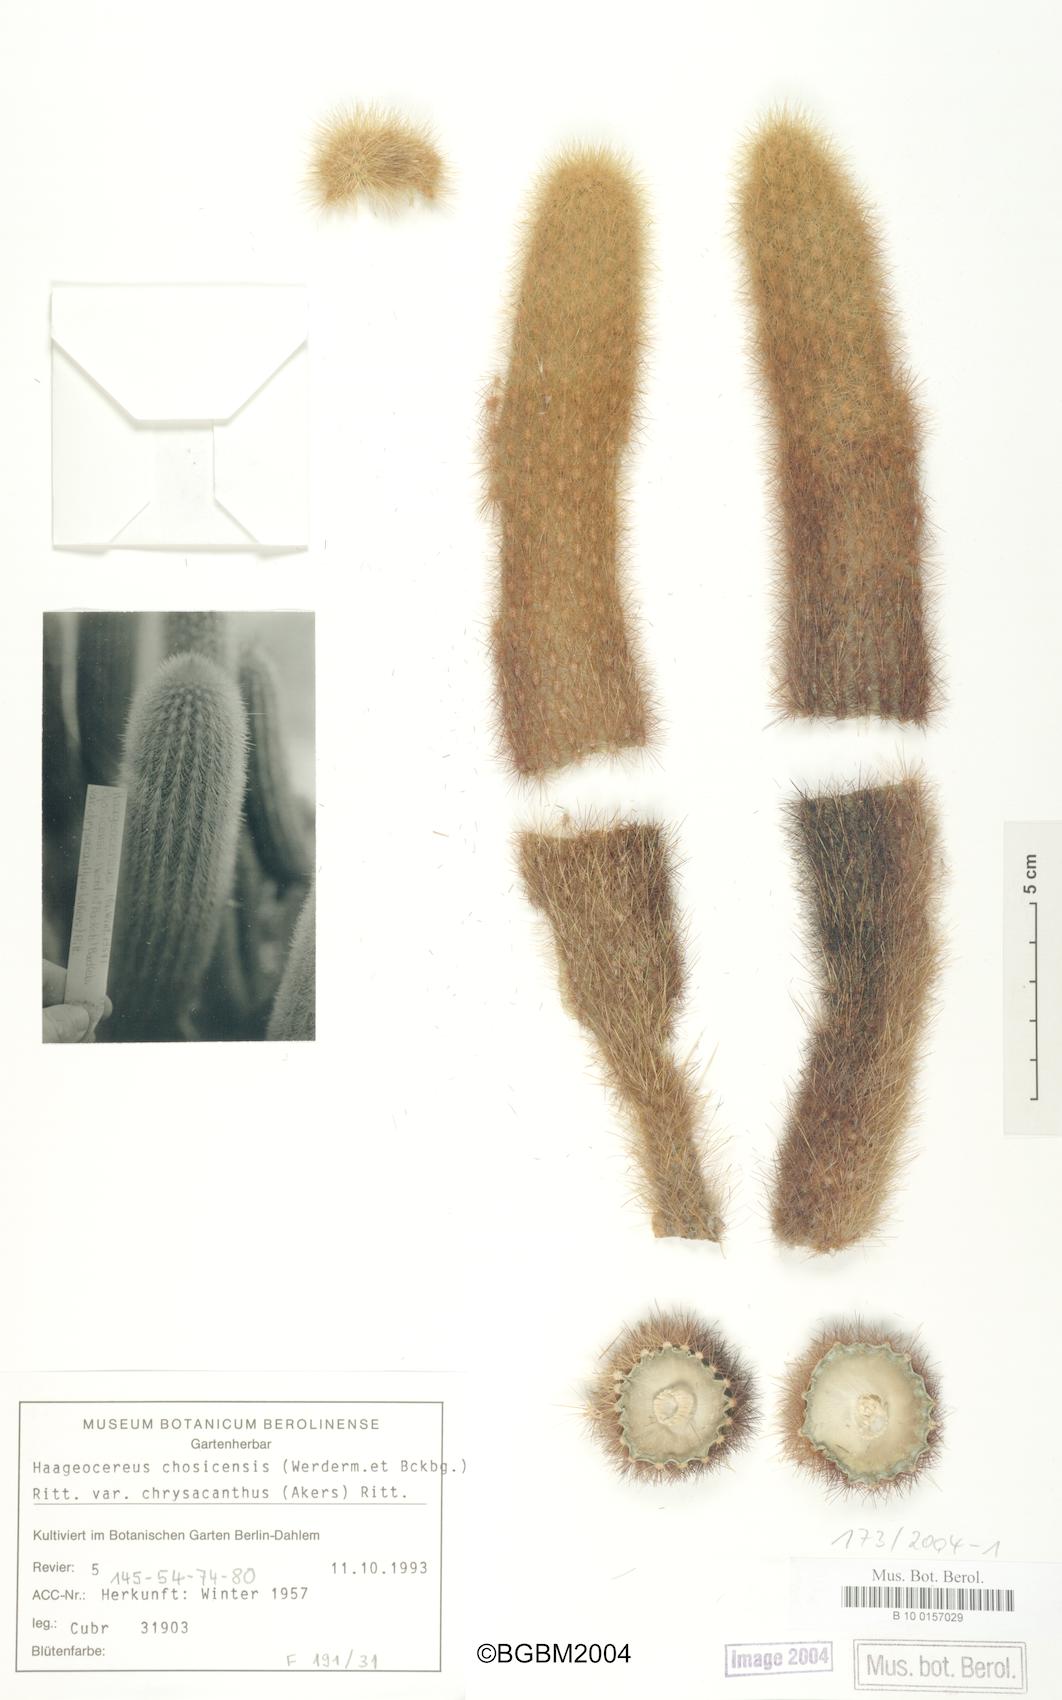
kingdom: Plantae
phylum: Tracheophyta
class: Magnoliopsida
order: Caryophyllales
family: Cactaceae
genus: Haageocereus
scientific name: Haageocereus pseudomelanostele
